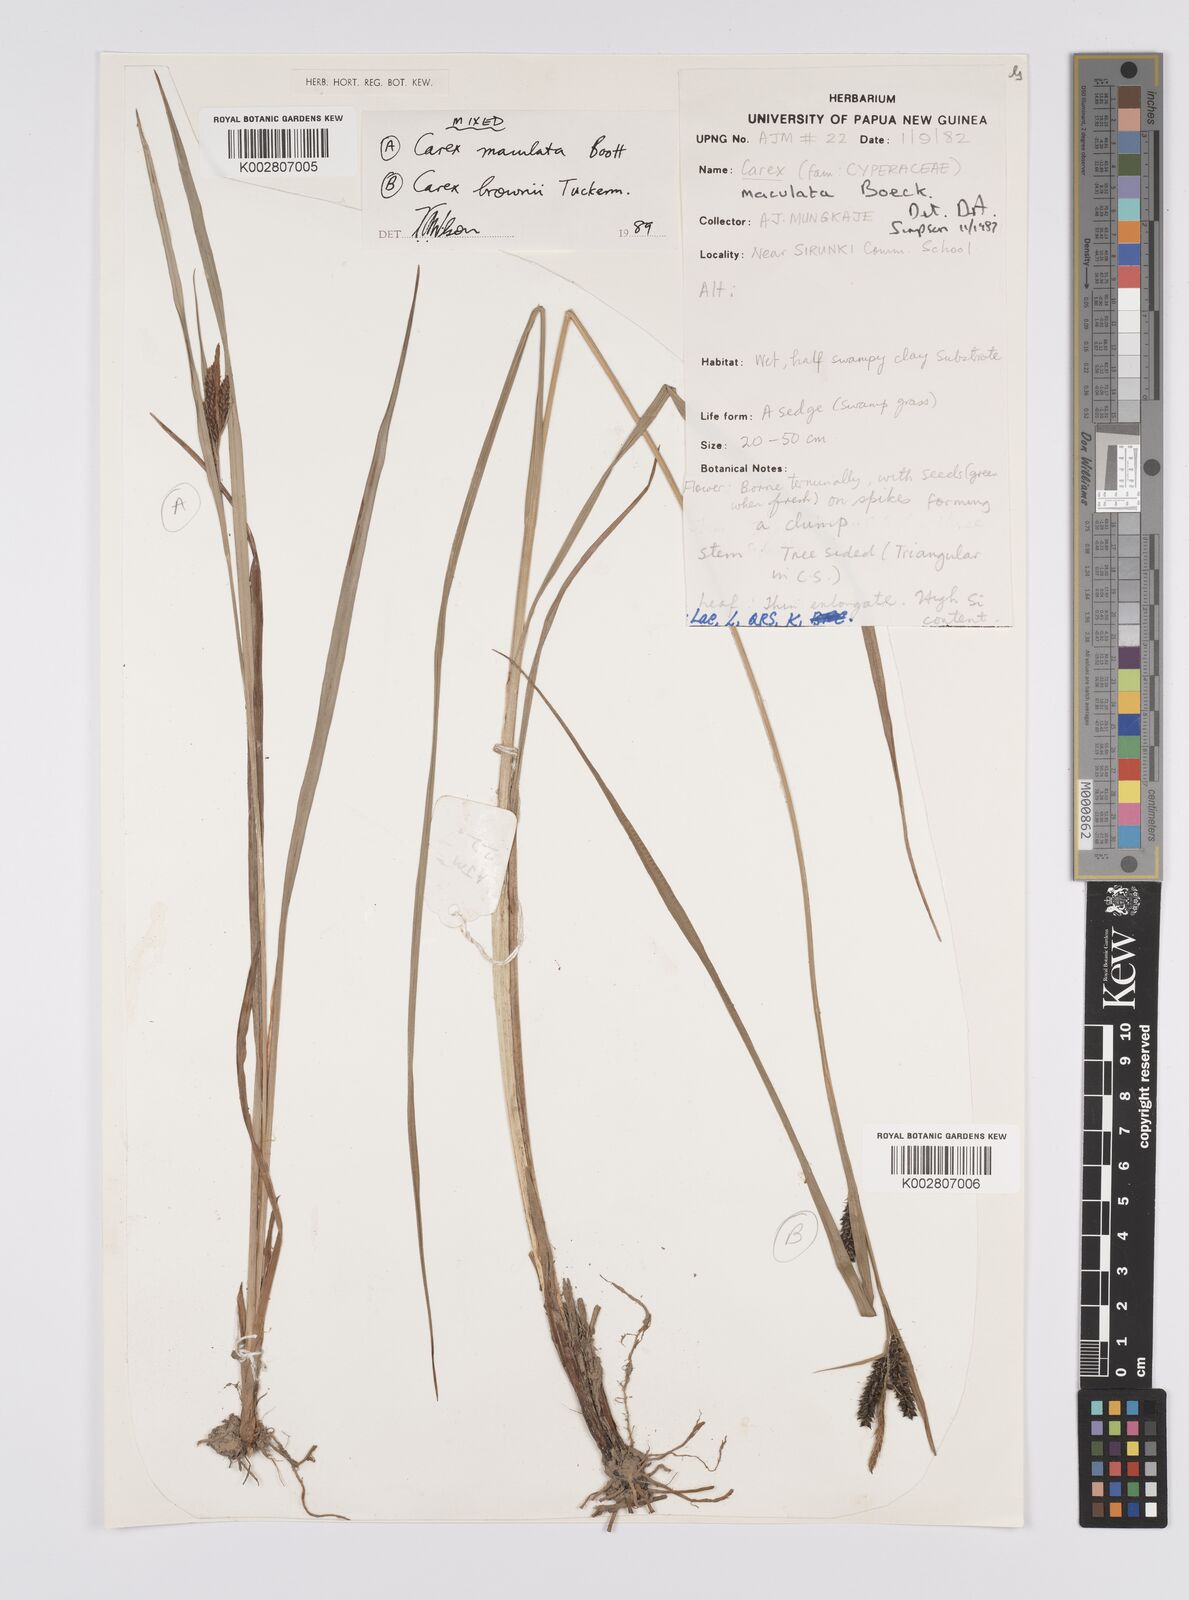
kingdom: Plantae
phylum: Tracheophyta
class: Liliopsida
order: Poales
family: Cyperaceae
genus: Carex
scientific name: Carex maculata
